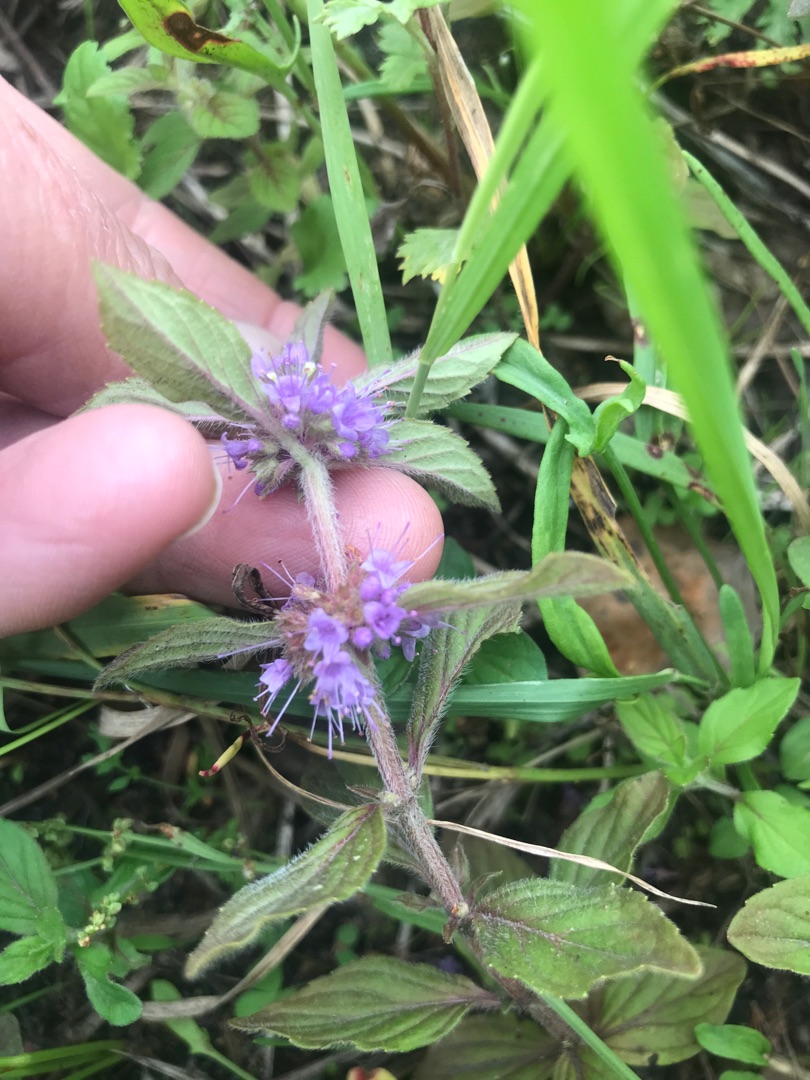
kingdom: Plantae
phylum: Tracheophyta
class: Magnoliopsida
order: Lamiales
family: Lamiaceae
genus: Mentha
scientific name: Mentha arvensis
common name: Ager-mynte
